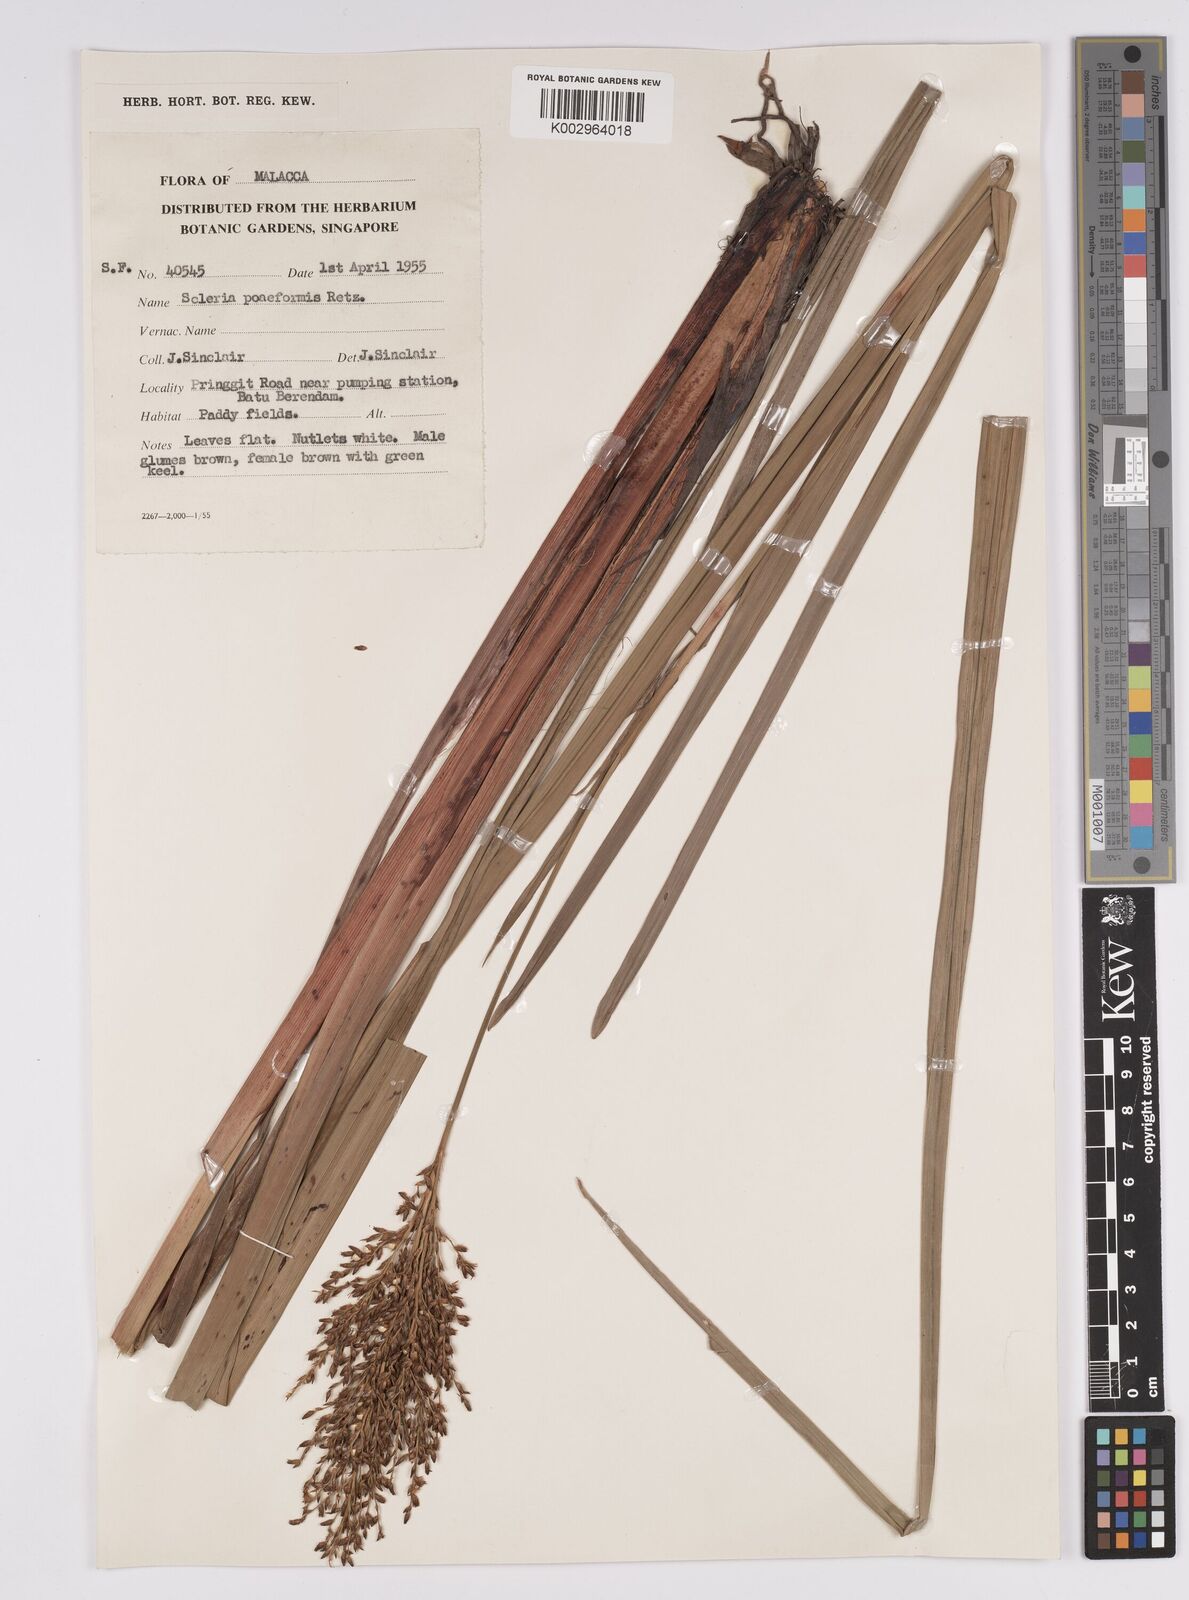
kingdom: Plantae
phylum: Tracheophyta
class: Liliopsida
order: Poales
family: Cyperaceae
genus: Scleria
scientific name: Scleria poiformis
